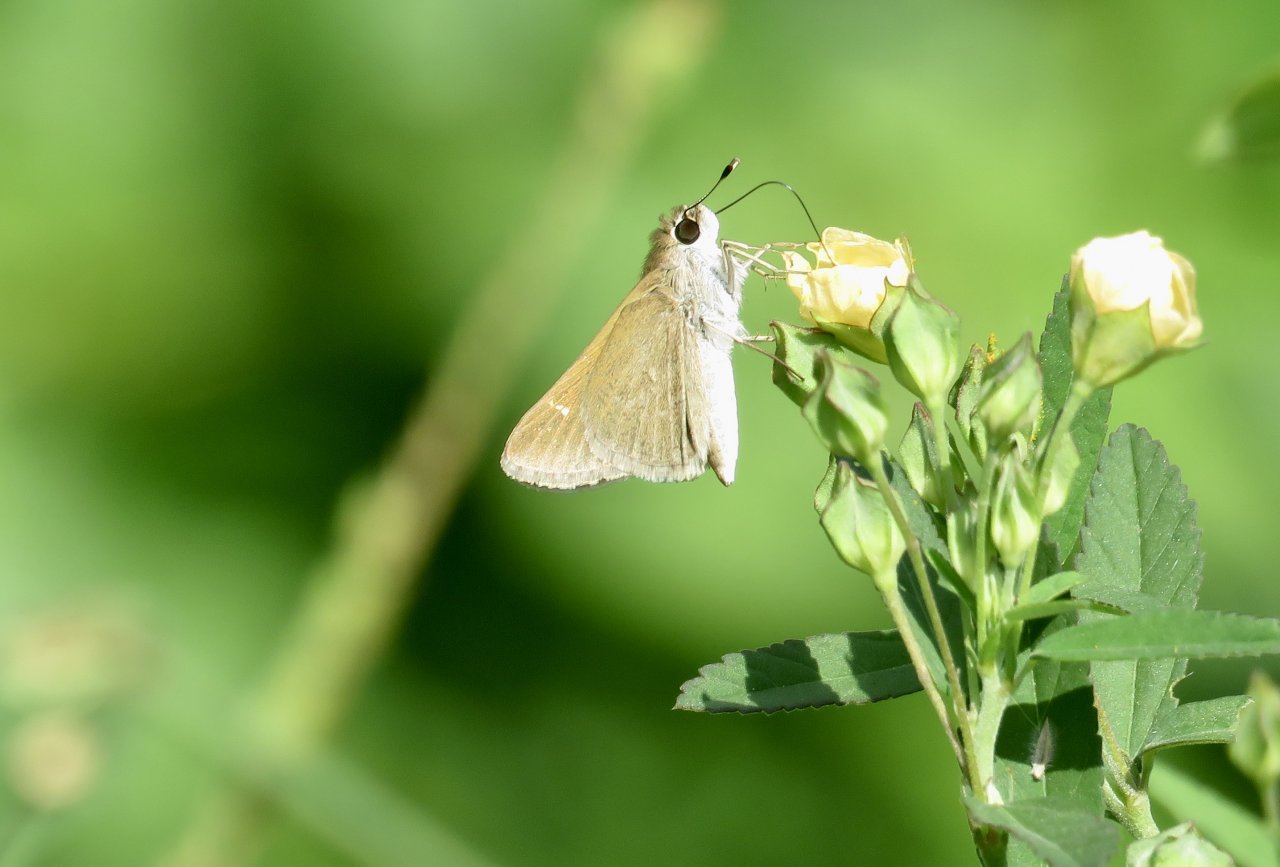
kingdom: Animalia
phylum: Arthropoda
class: Insecta
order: Lepidoptera
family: Hesperiidae
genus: Lerodea
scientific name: Lerodea eufala
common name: Eufala Skipper
